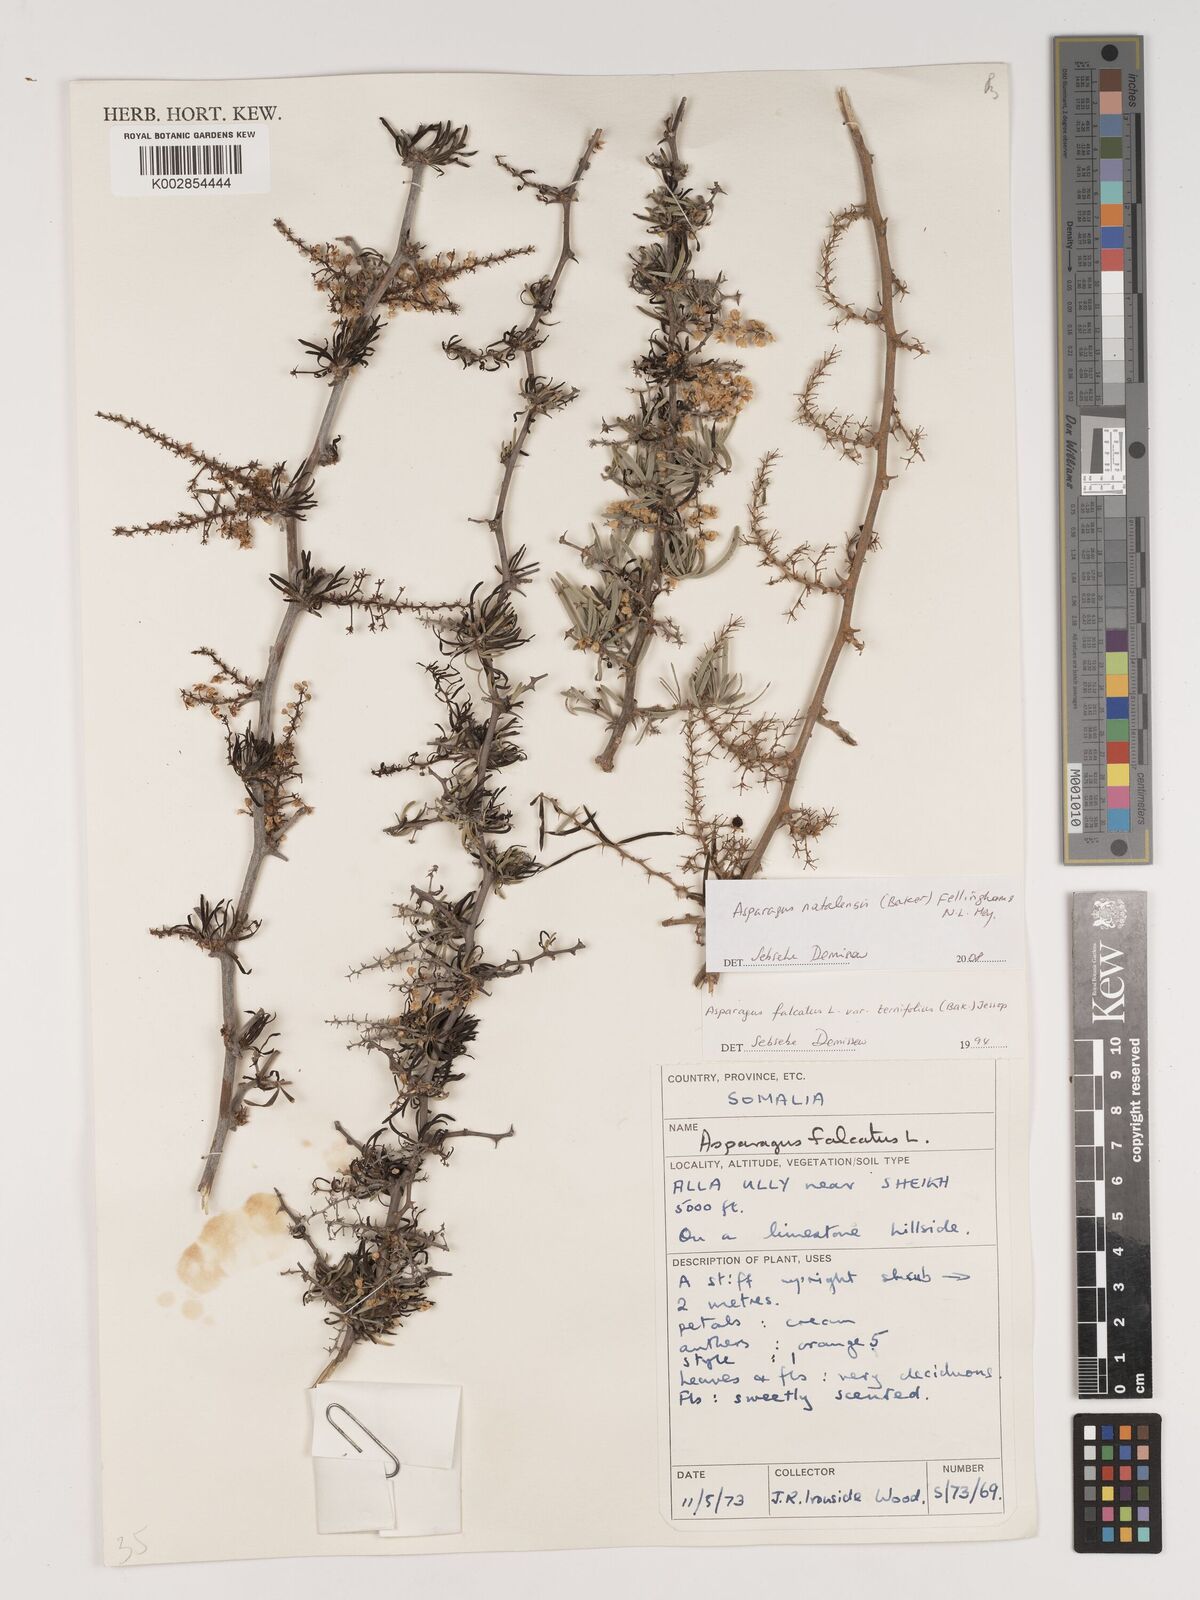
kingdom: Plantae
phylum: Tracheophyta
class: Liliopsida
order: Asparagales
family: Asparagaceae
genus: Asparagus
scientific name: Asparagus natalensis
